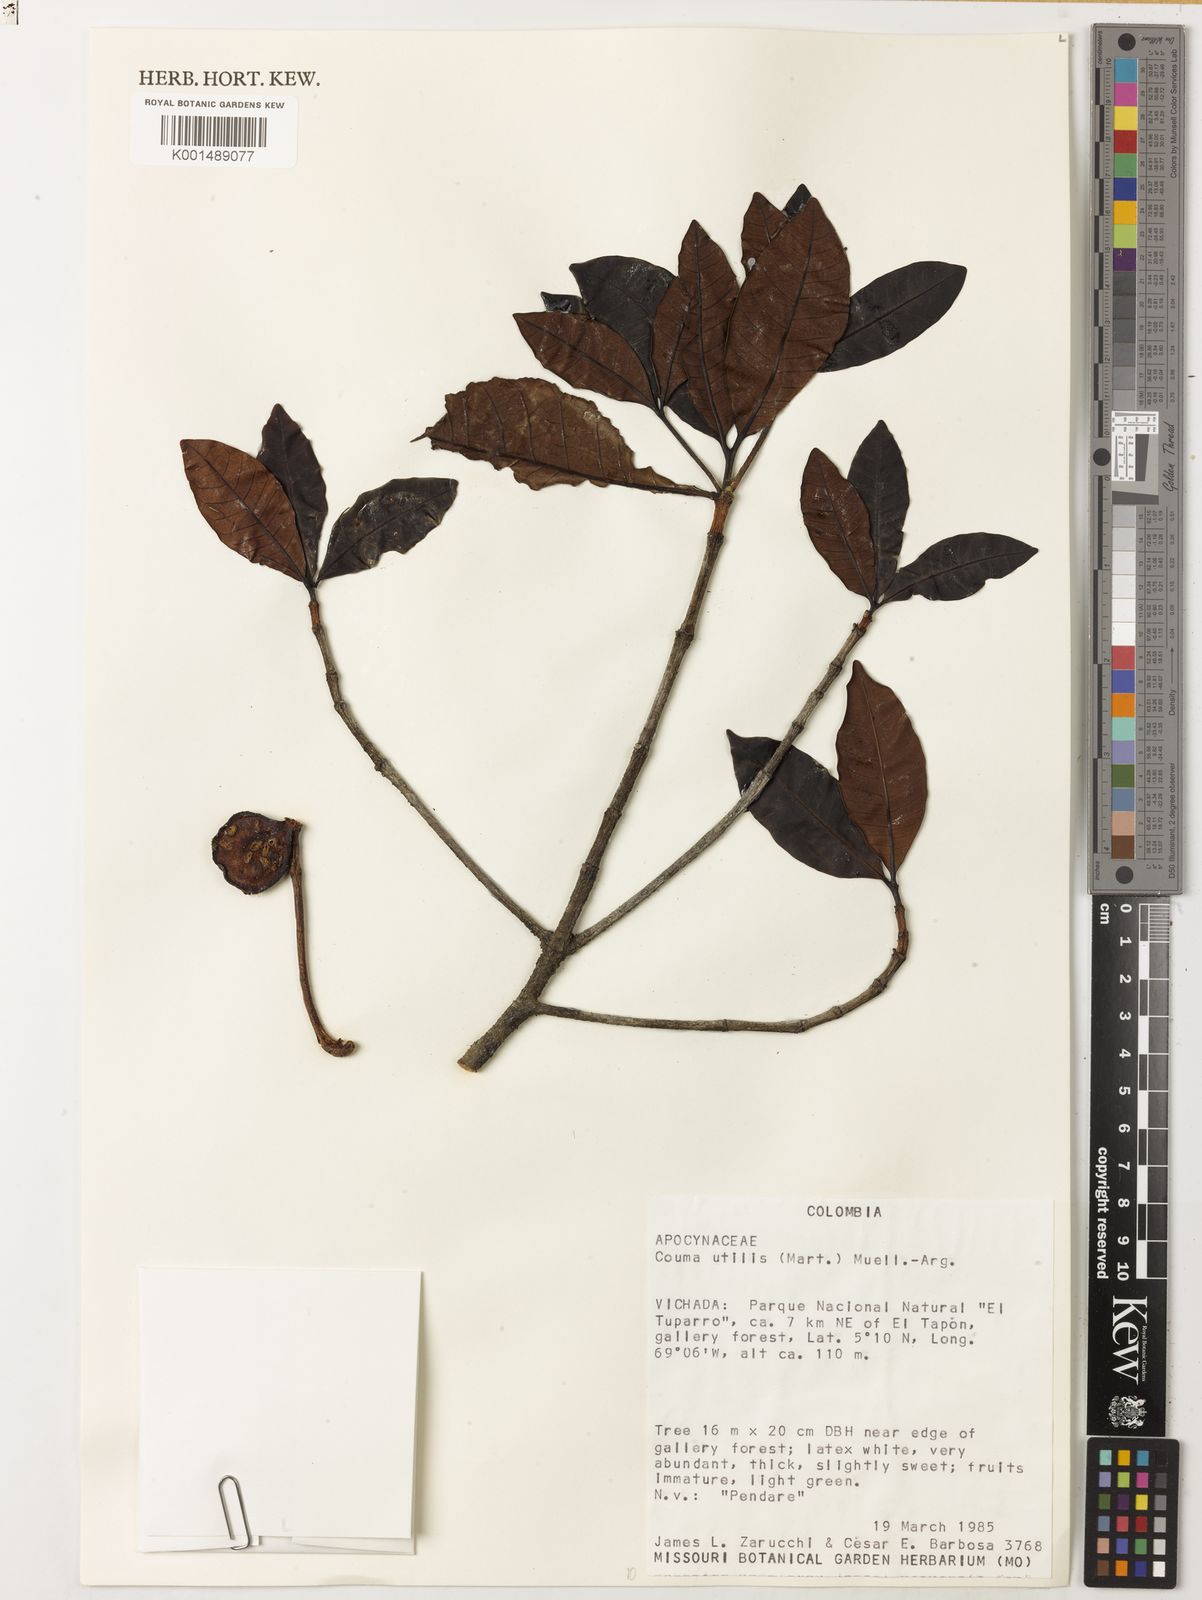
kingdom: Plantae
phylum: Tracheophyta
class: Magnoliopsida
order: Gentianales
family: Apocynaceae
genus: Couma
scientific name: Couma utilis
